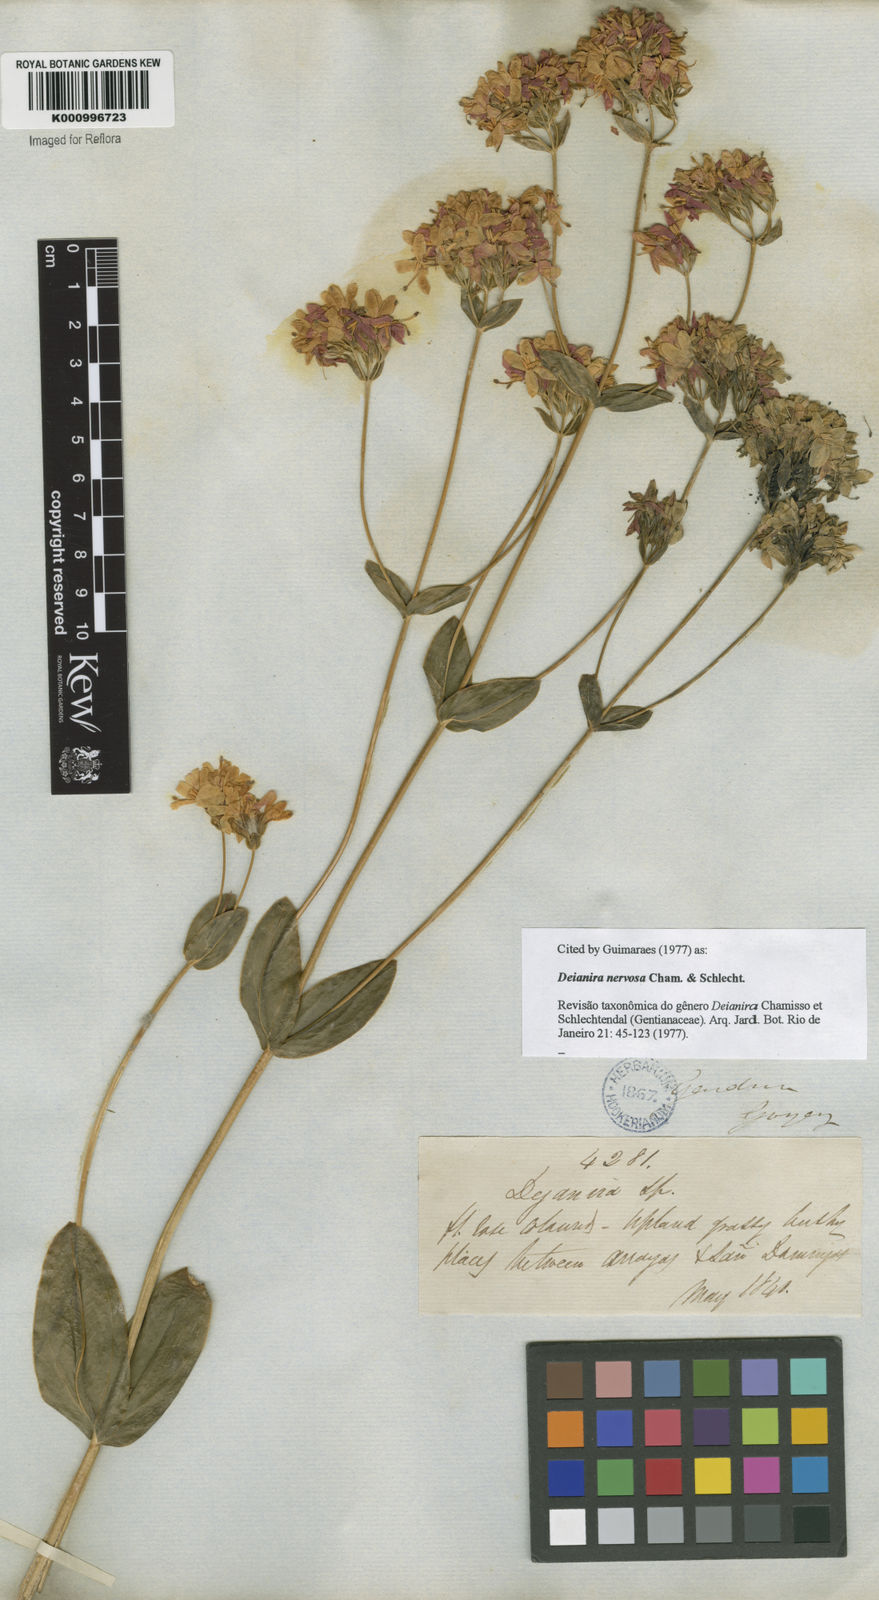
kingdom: Plantae
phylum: Tracheophyta
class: Magnoliopsida
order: Gentianales
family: Gentianaceae
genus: Deianira
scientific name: Deianira nervosa
